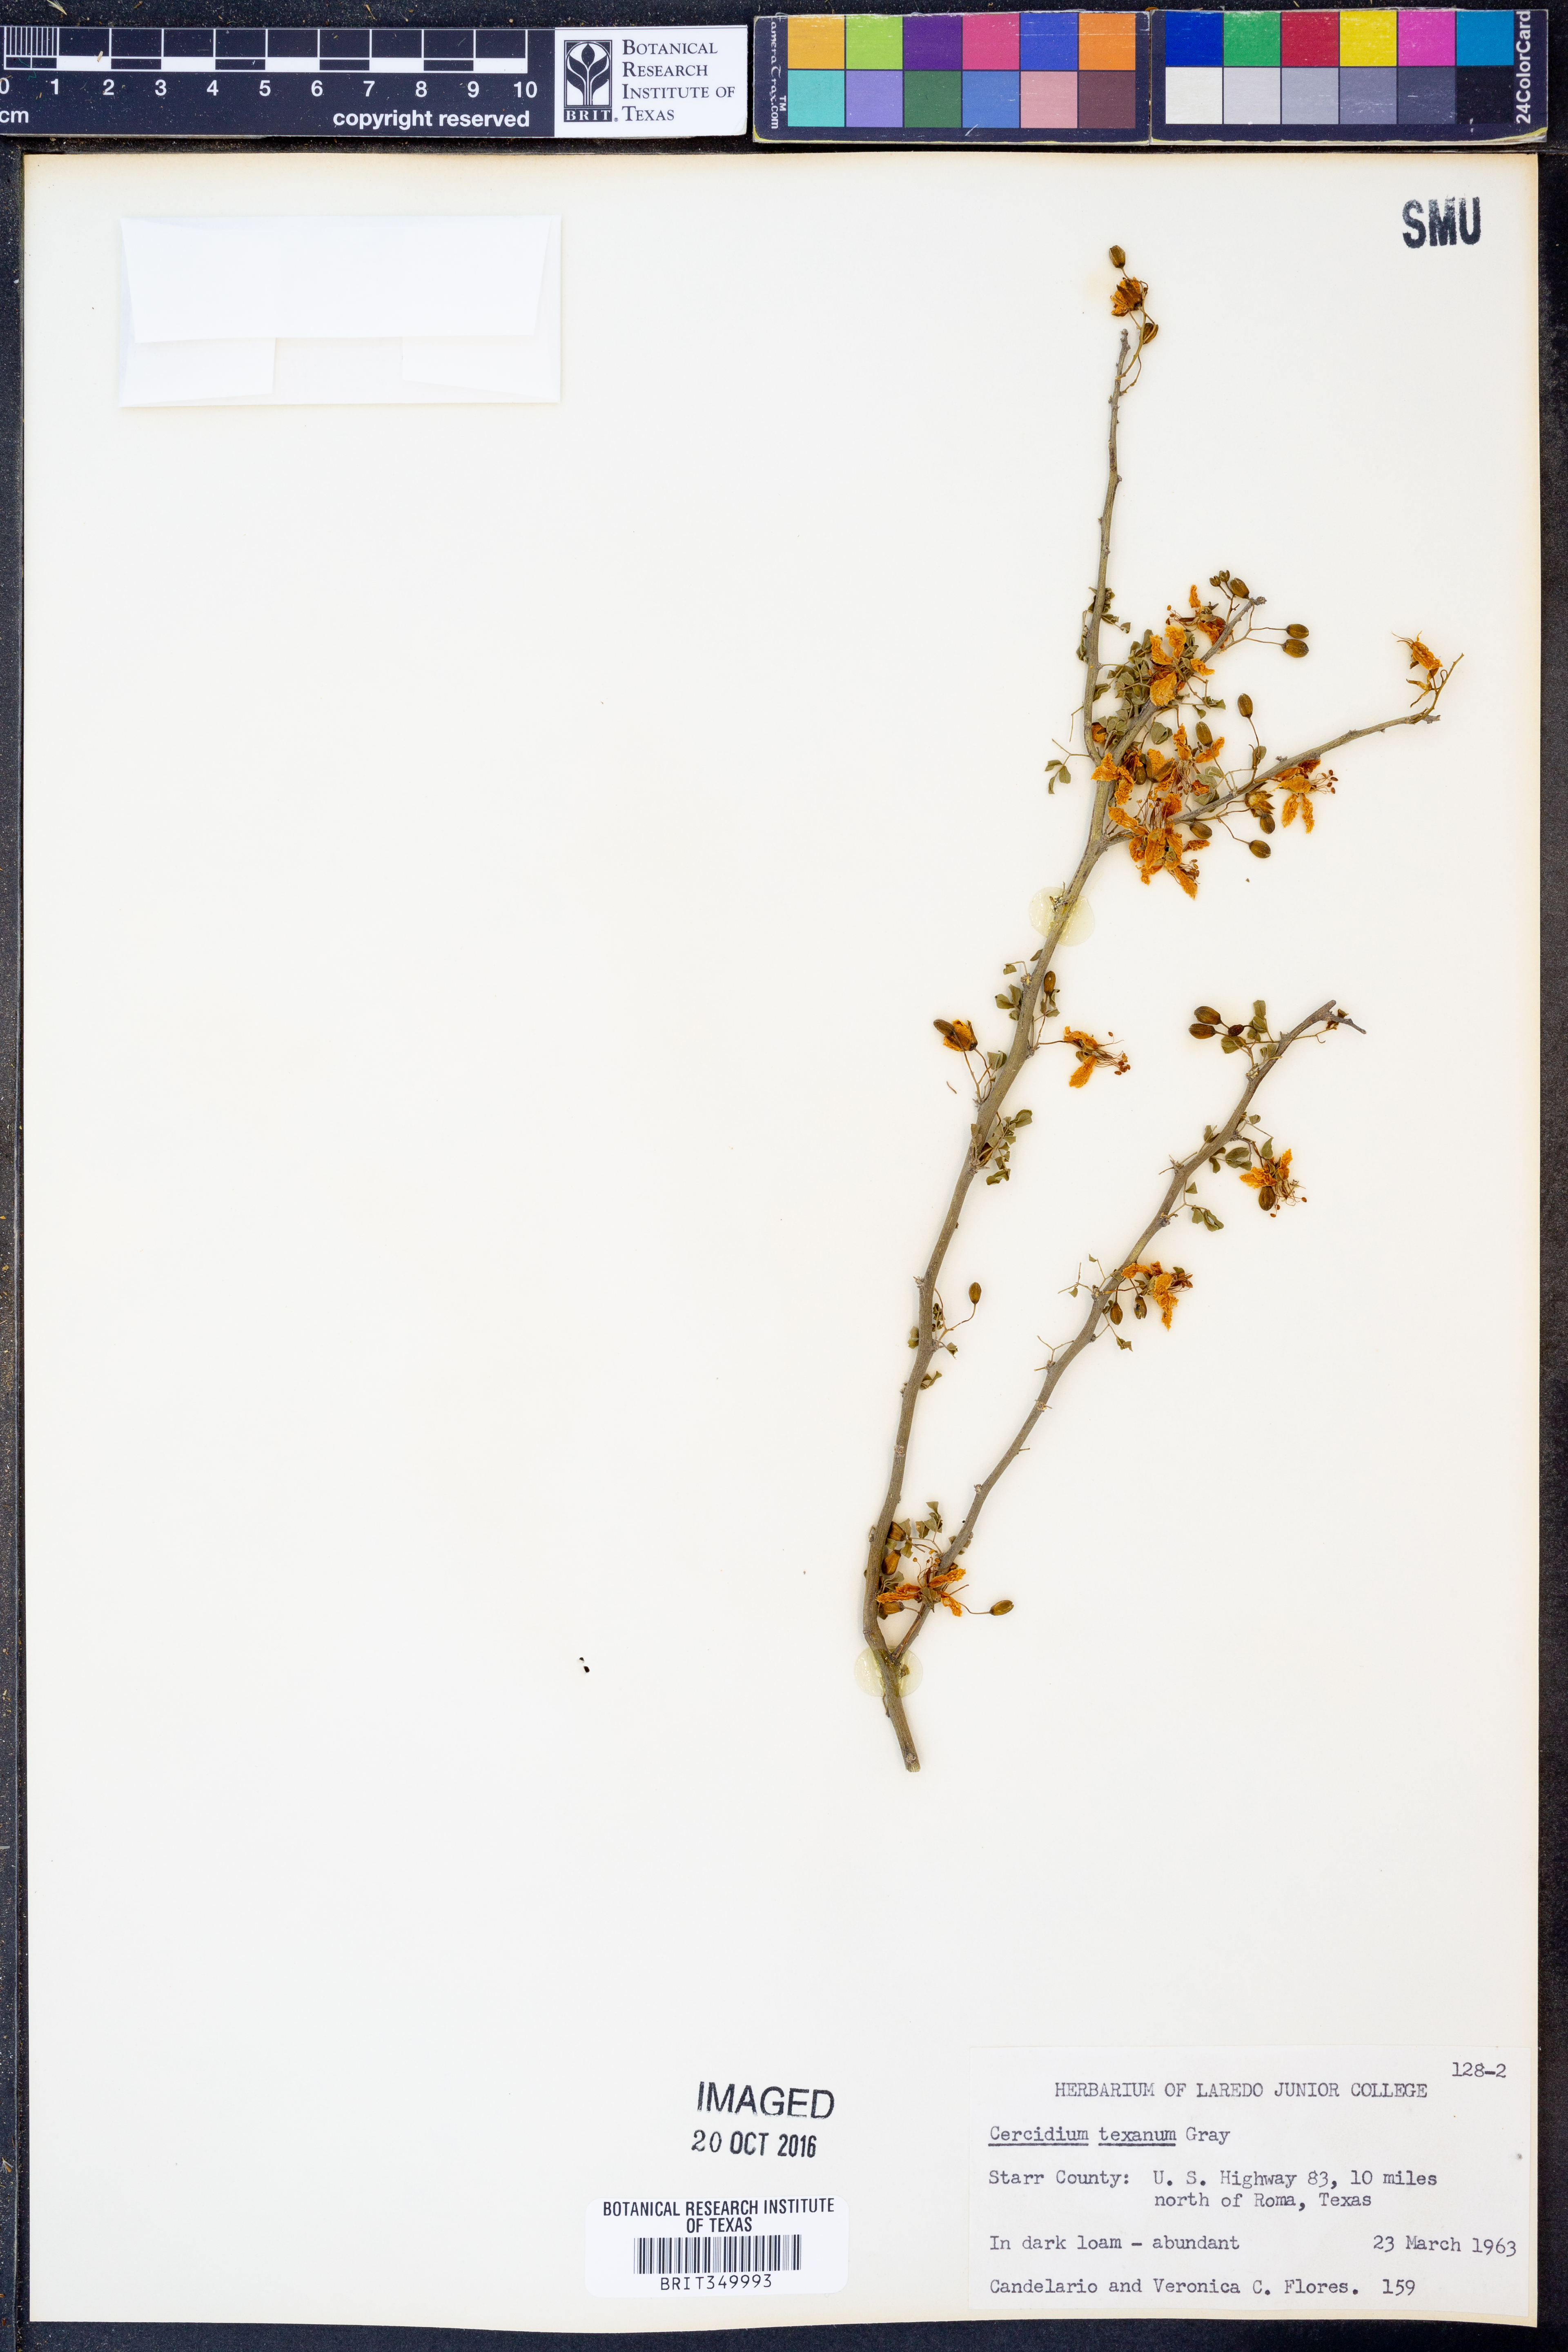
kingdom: Plantae
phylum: Tracheophyta
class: Magnoliopsida
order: Fabales
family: Fabaceae
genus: Parkinsonia
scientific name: Parkinsonia texana
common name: Texas paloverde
